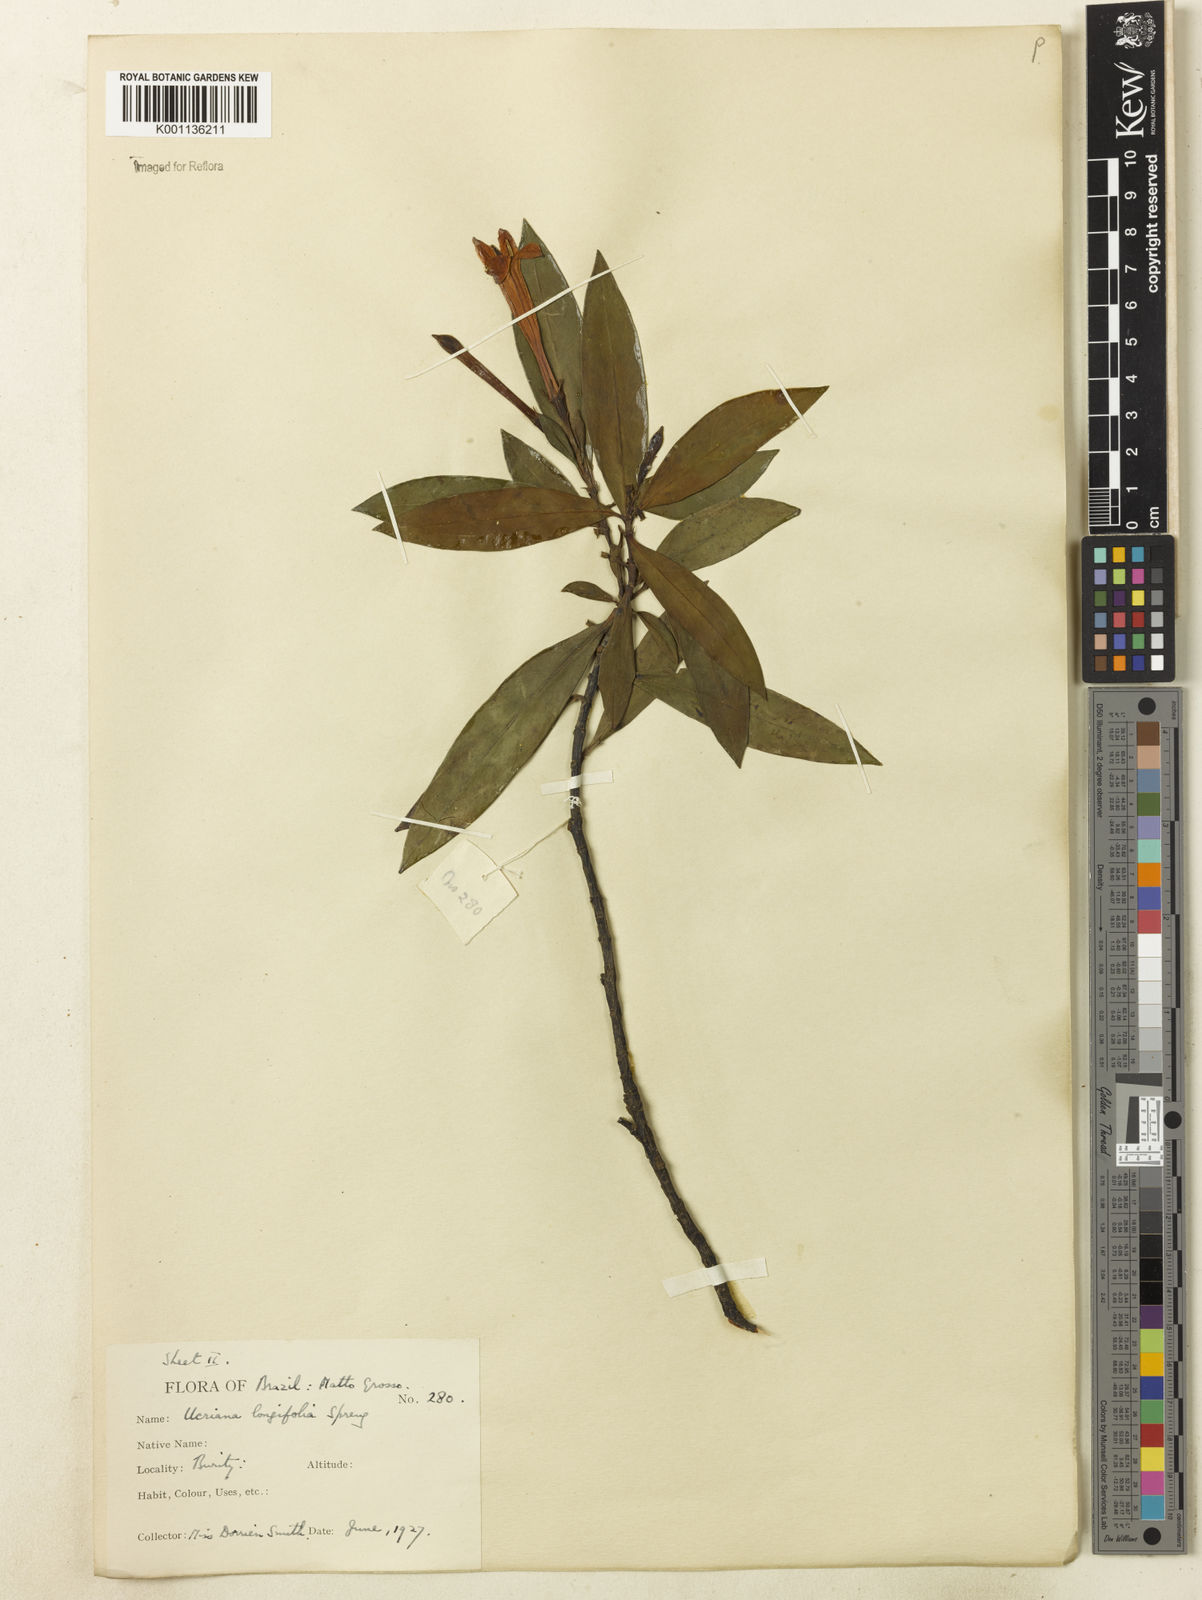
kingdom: Plantae
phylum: Tracheophyta
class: Magnoliopsida
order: Gentianales
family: Rubiaceae
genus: Augusta
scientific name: Augusta longifolia
